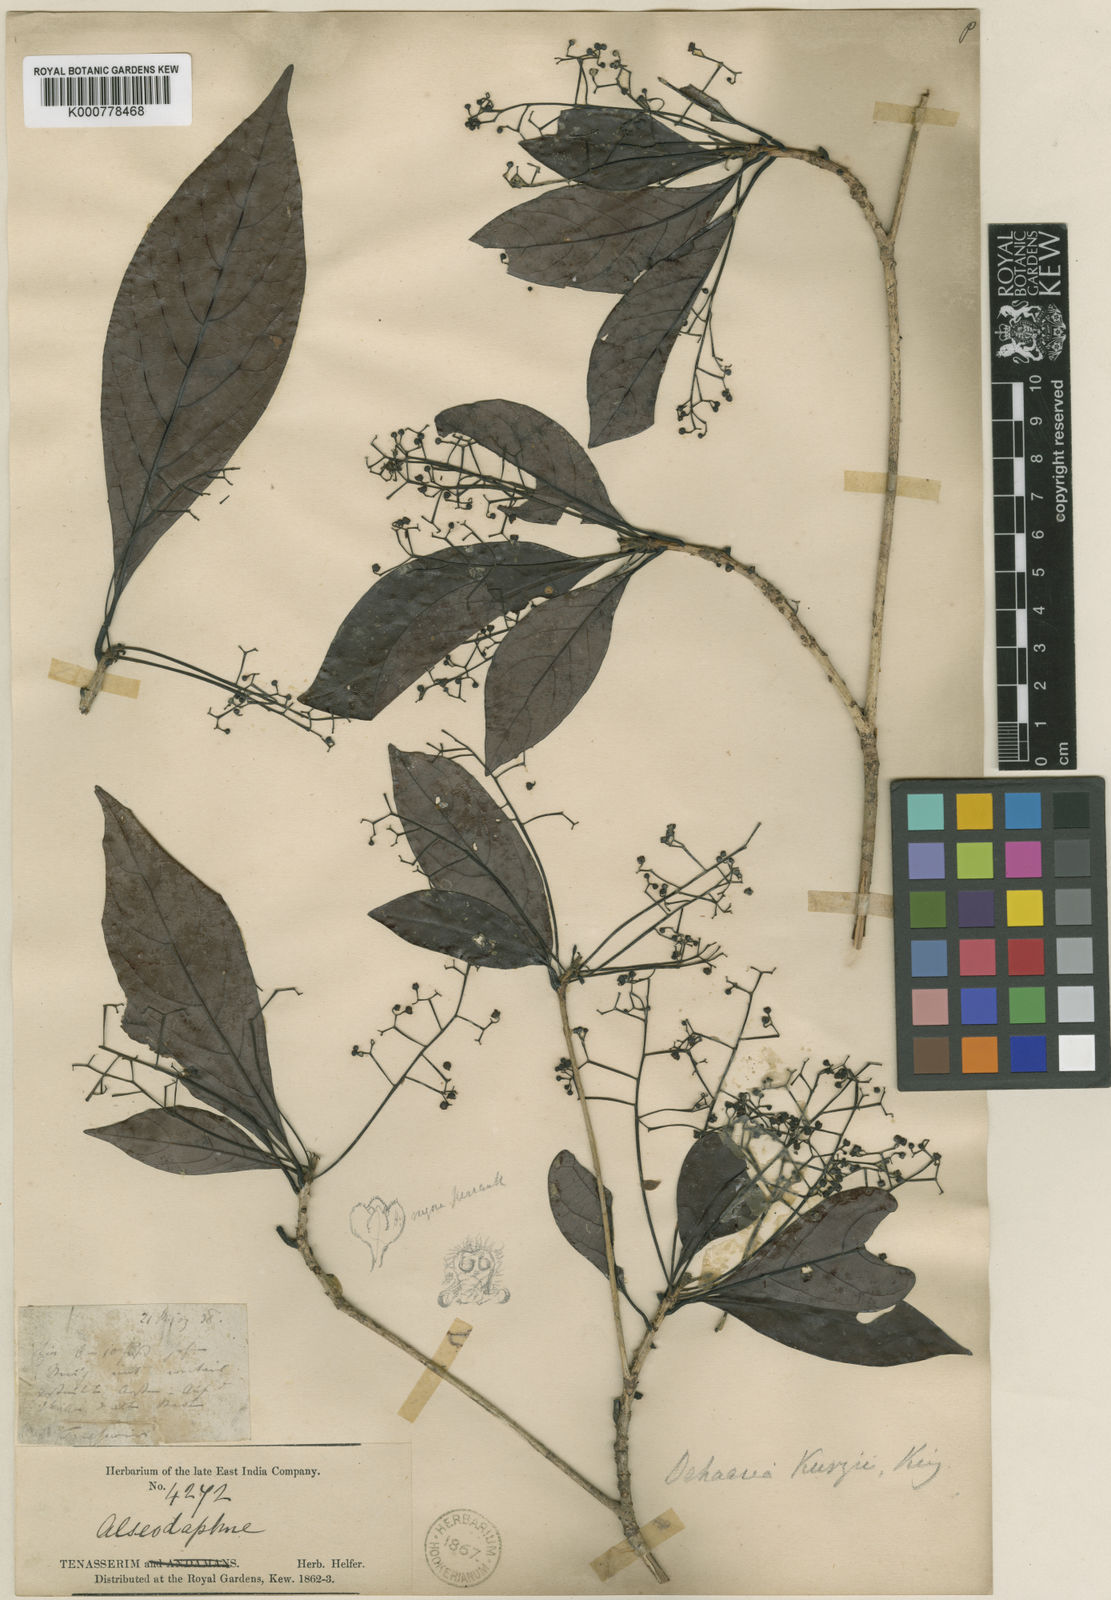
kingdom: Plantae
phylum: Tracheophyta
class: Magnoliopsida
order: Laurales
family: Lauraceae
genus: Dehaasia
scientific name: Dehaasia kurzii
